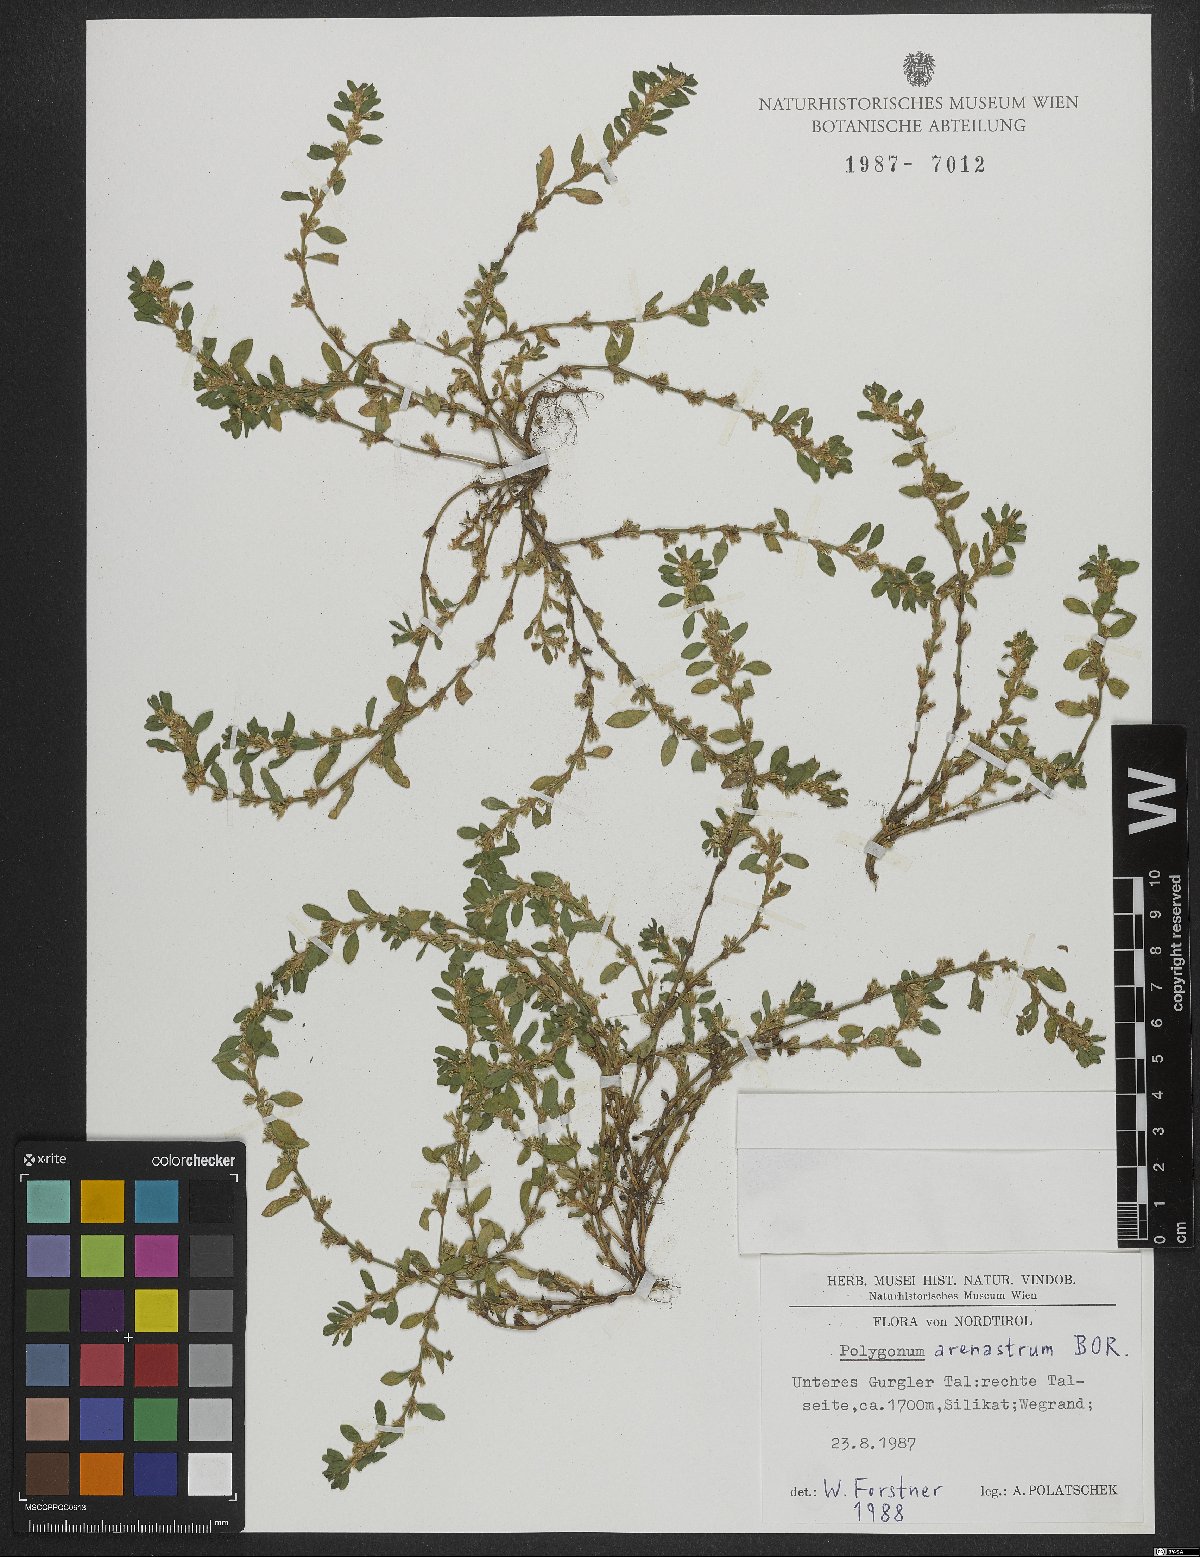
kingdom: Plantae
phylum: Tracheophyta
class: Magnoliopsida
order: Caryophyllales
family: Polygonaceae
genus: Polygonum
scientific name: Polygonum arenastrum
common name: Equal-leaved knotgrass
